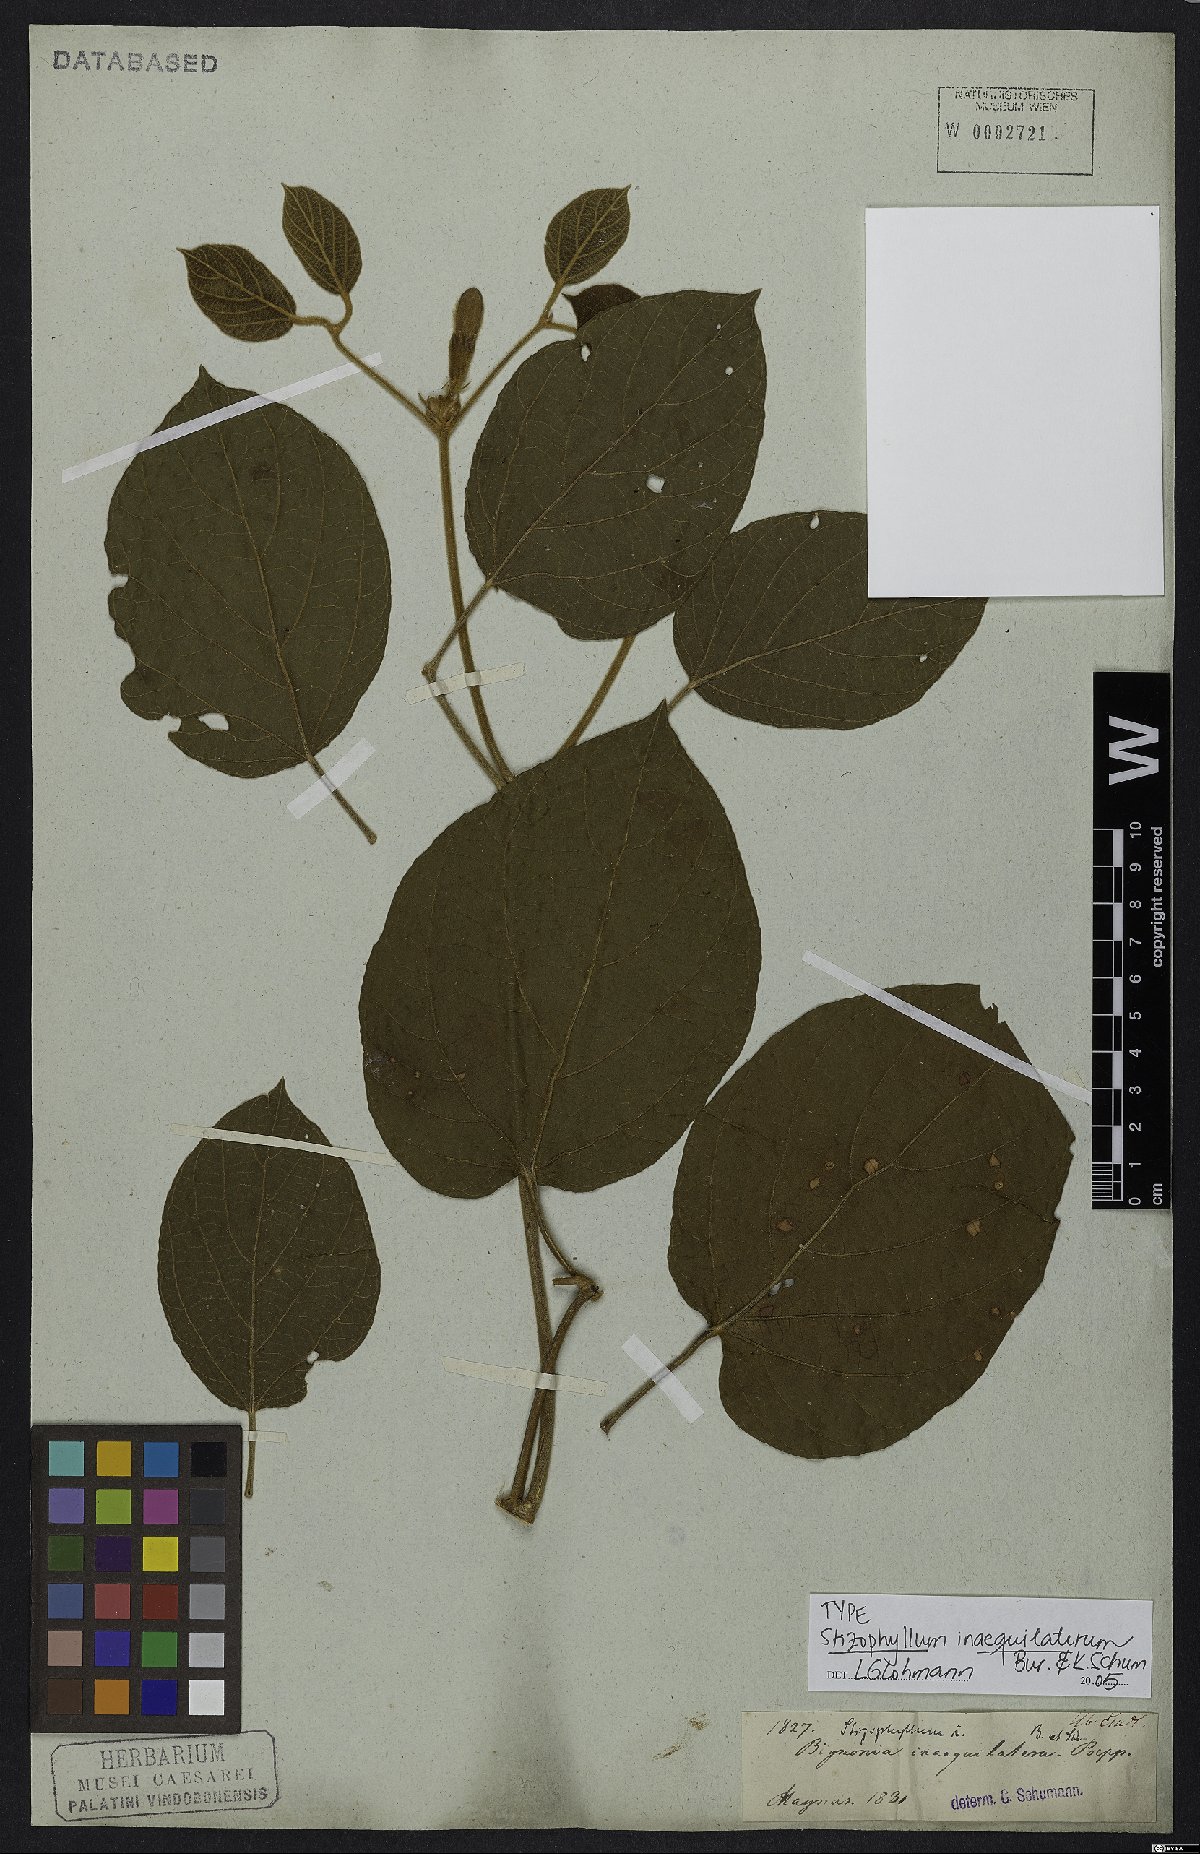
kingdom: Plantae
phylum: Tracheophyta
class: Magnoliopsida
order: Lamiales
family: Bignoniaceae
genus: Stizophyllum
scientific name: Stizophyllum inaequilaterum
